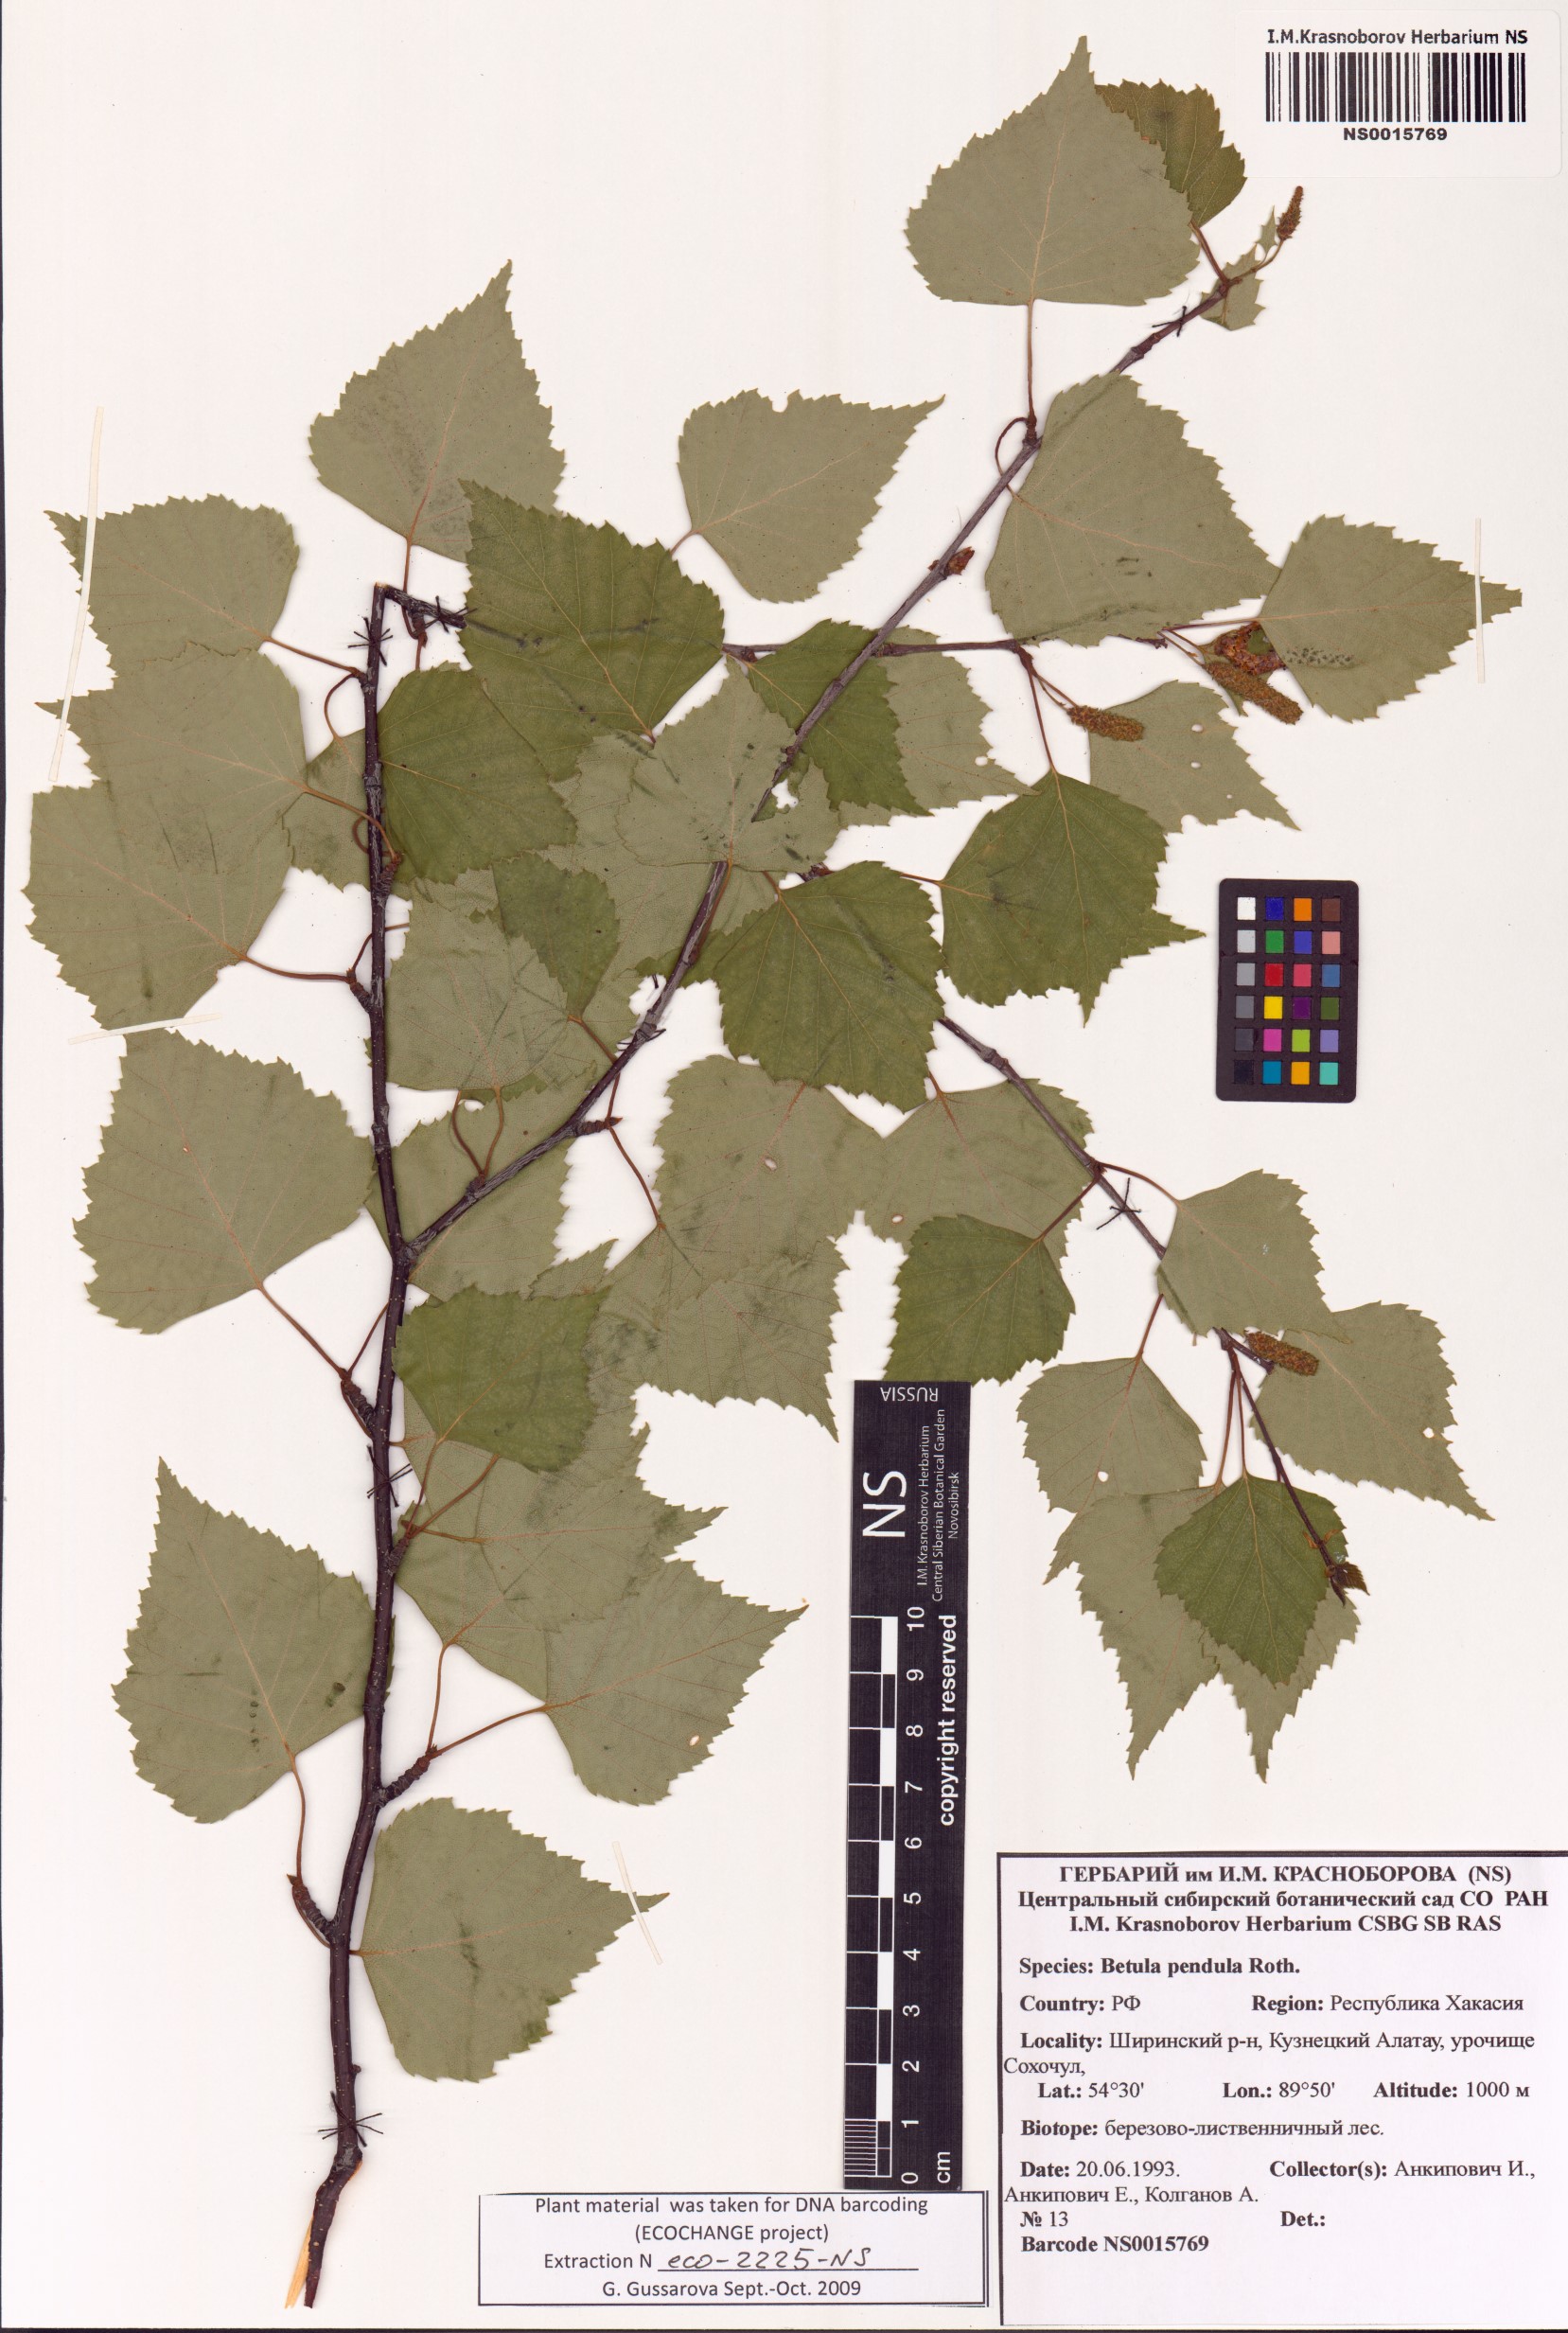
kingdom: Plantae
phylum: Tracheophyta
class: Magnoliopsida
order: Fagales
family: Betulaceae
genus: Betula
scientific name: Betula pendula
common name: Silver birch
